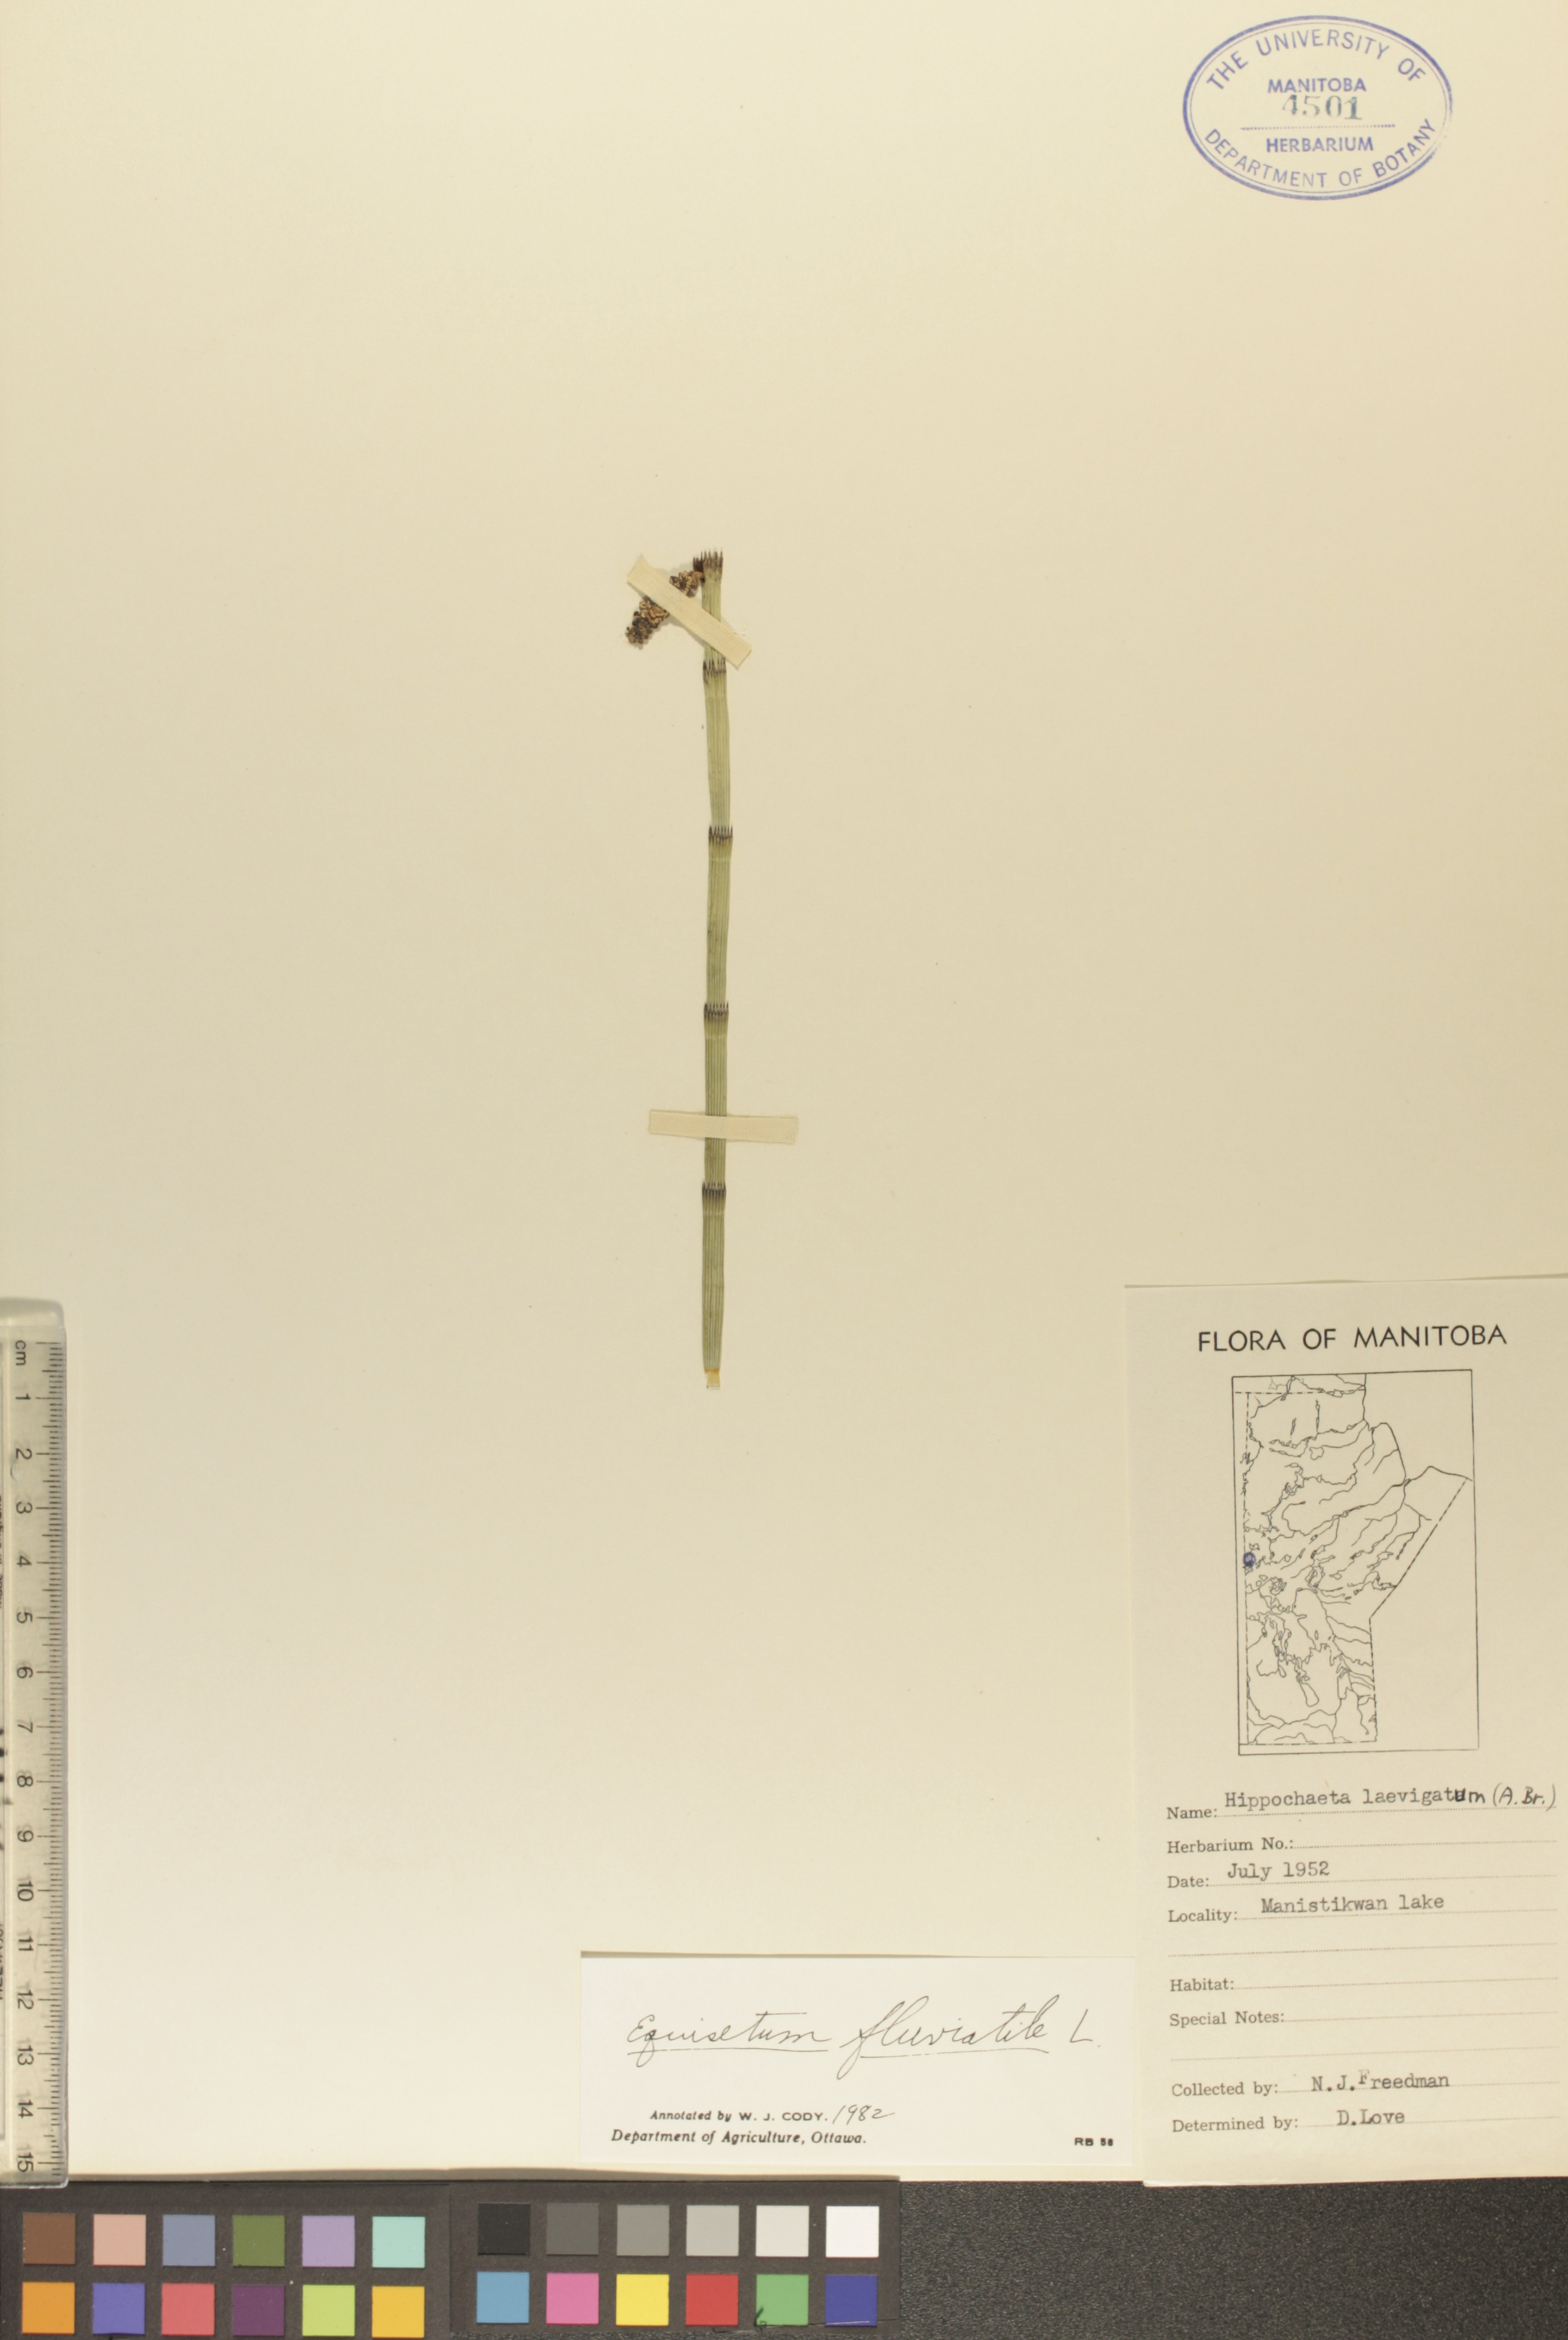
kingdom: Plantae
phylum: Tracheophyta
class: Polypodiopsida
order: Equisetales
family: Equisetaceae
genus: Equisetum
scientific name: Equisetum fluviatile
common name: Water horsetail
